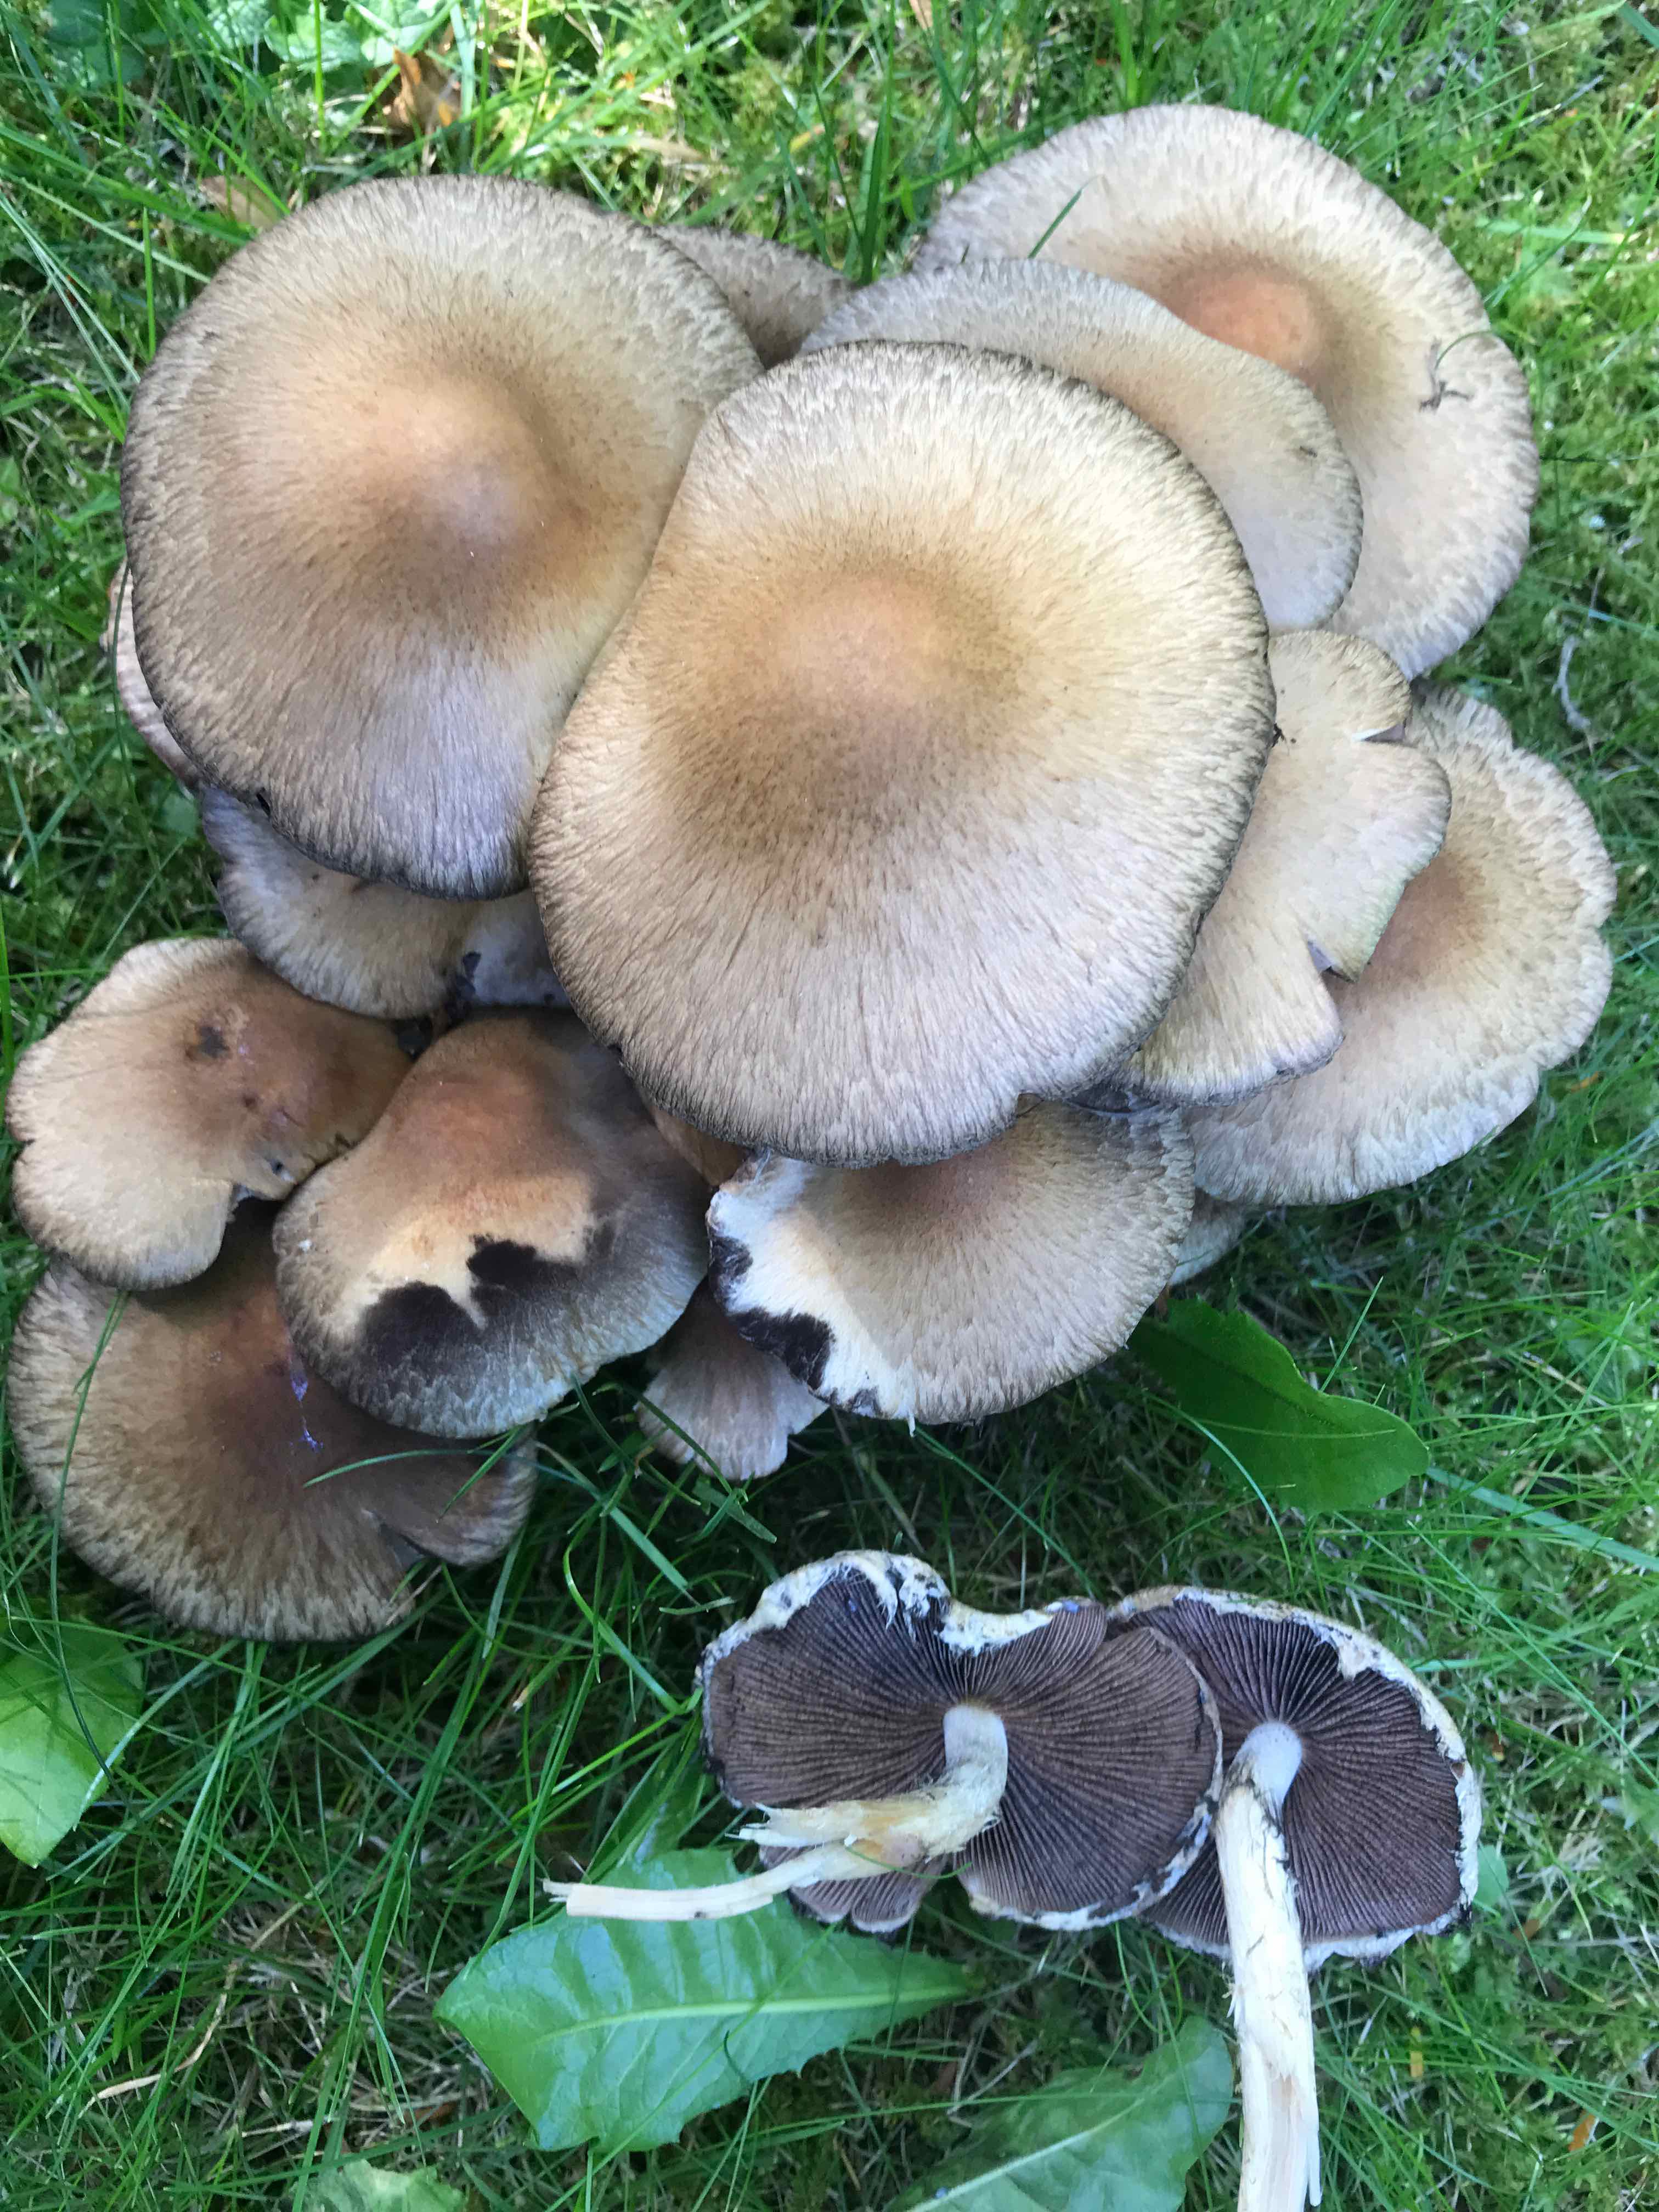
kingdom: Fungi
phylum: Basidiomycota
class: Agaricomycetes
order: Agaricales
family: Psathyrellaceae
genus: Lacrymaria
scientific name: Lacrymaria lacrymabunda
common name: grædende mørkhat
